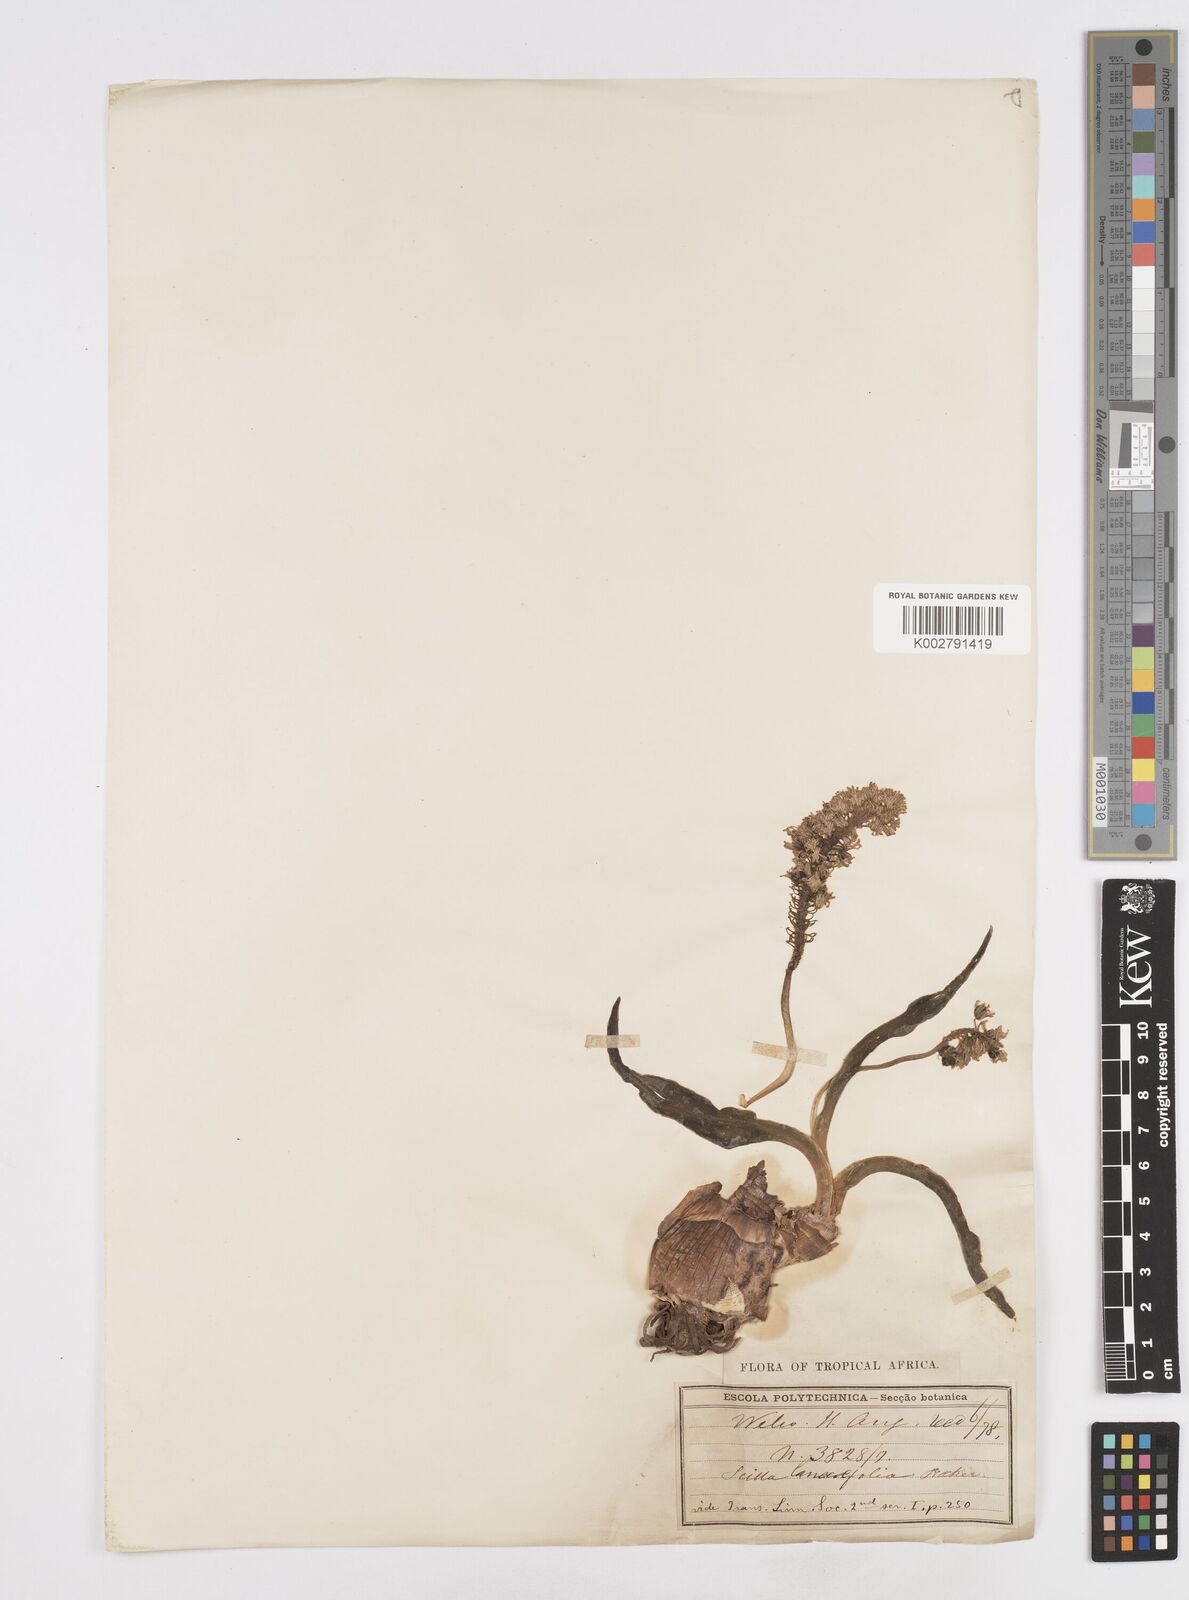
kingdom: Plantae
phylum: Tracheophyta
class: Liliopsida
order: Asparagales
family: Asparagaceae
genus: Ledebouria
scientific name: Ledebouria revoluta
